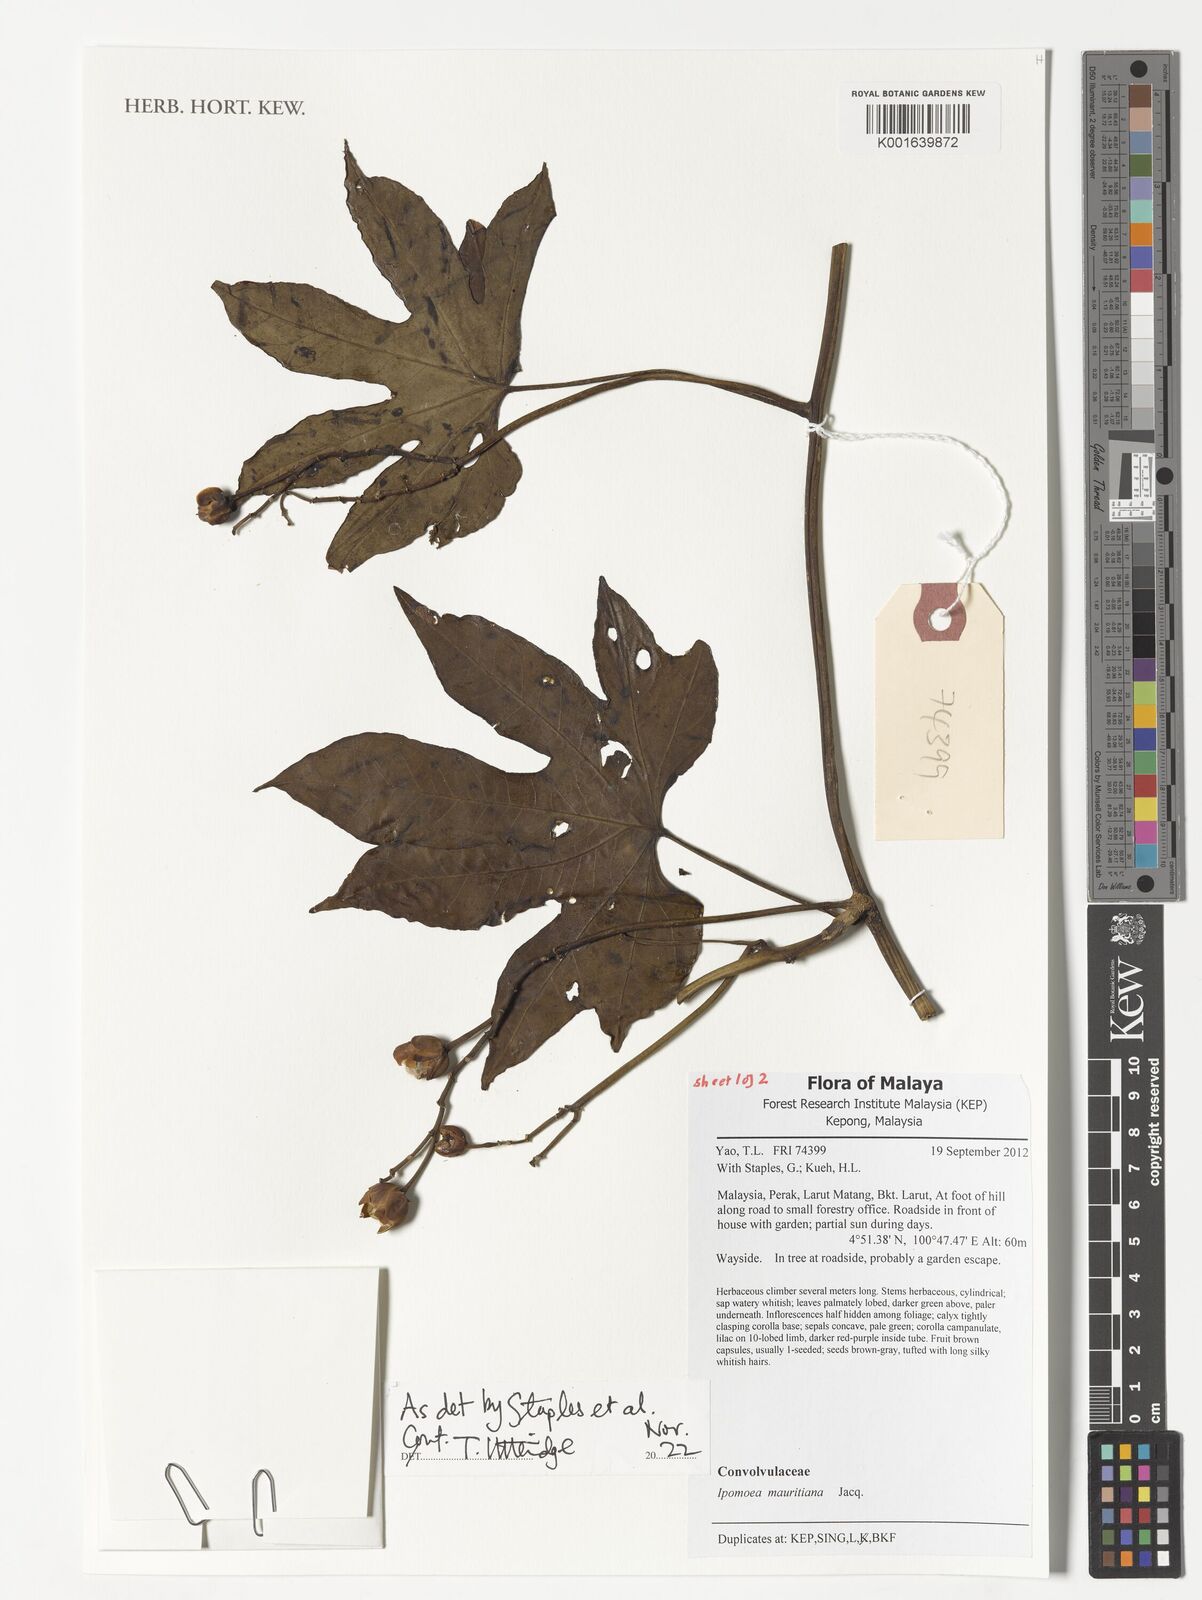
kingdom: Plantae
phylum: Tracheophyta
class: Magnoliopsida
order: Solanales
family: Convolvulaceae
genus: Ipomoea
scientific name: Ipomoea mauritiana
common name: Mauritanian convolvulus
